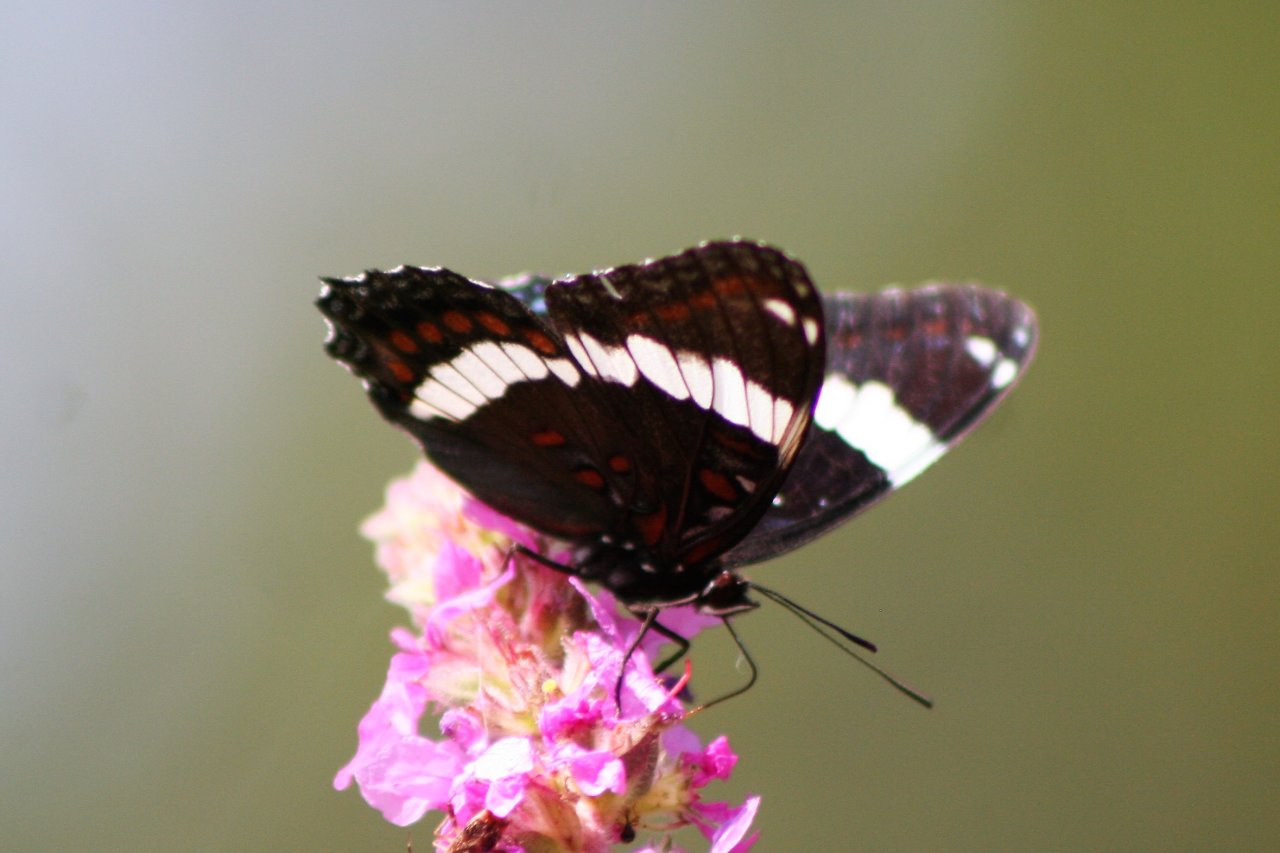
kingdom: Animalia
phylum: Arthropoda
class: Insecta
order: Lepidoptera
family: Nymphalidae
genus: Limenitis
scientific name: Limenitis arthemis
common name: Red-spotted Admiral
